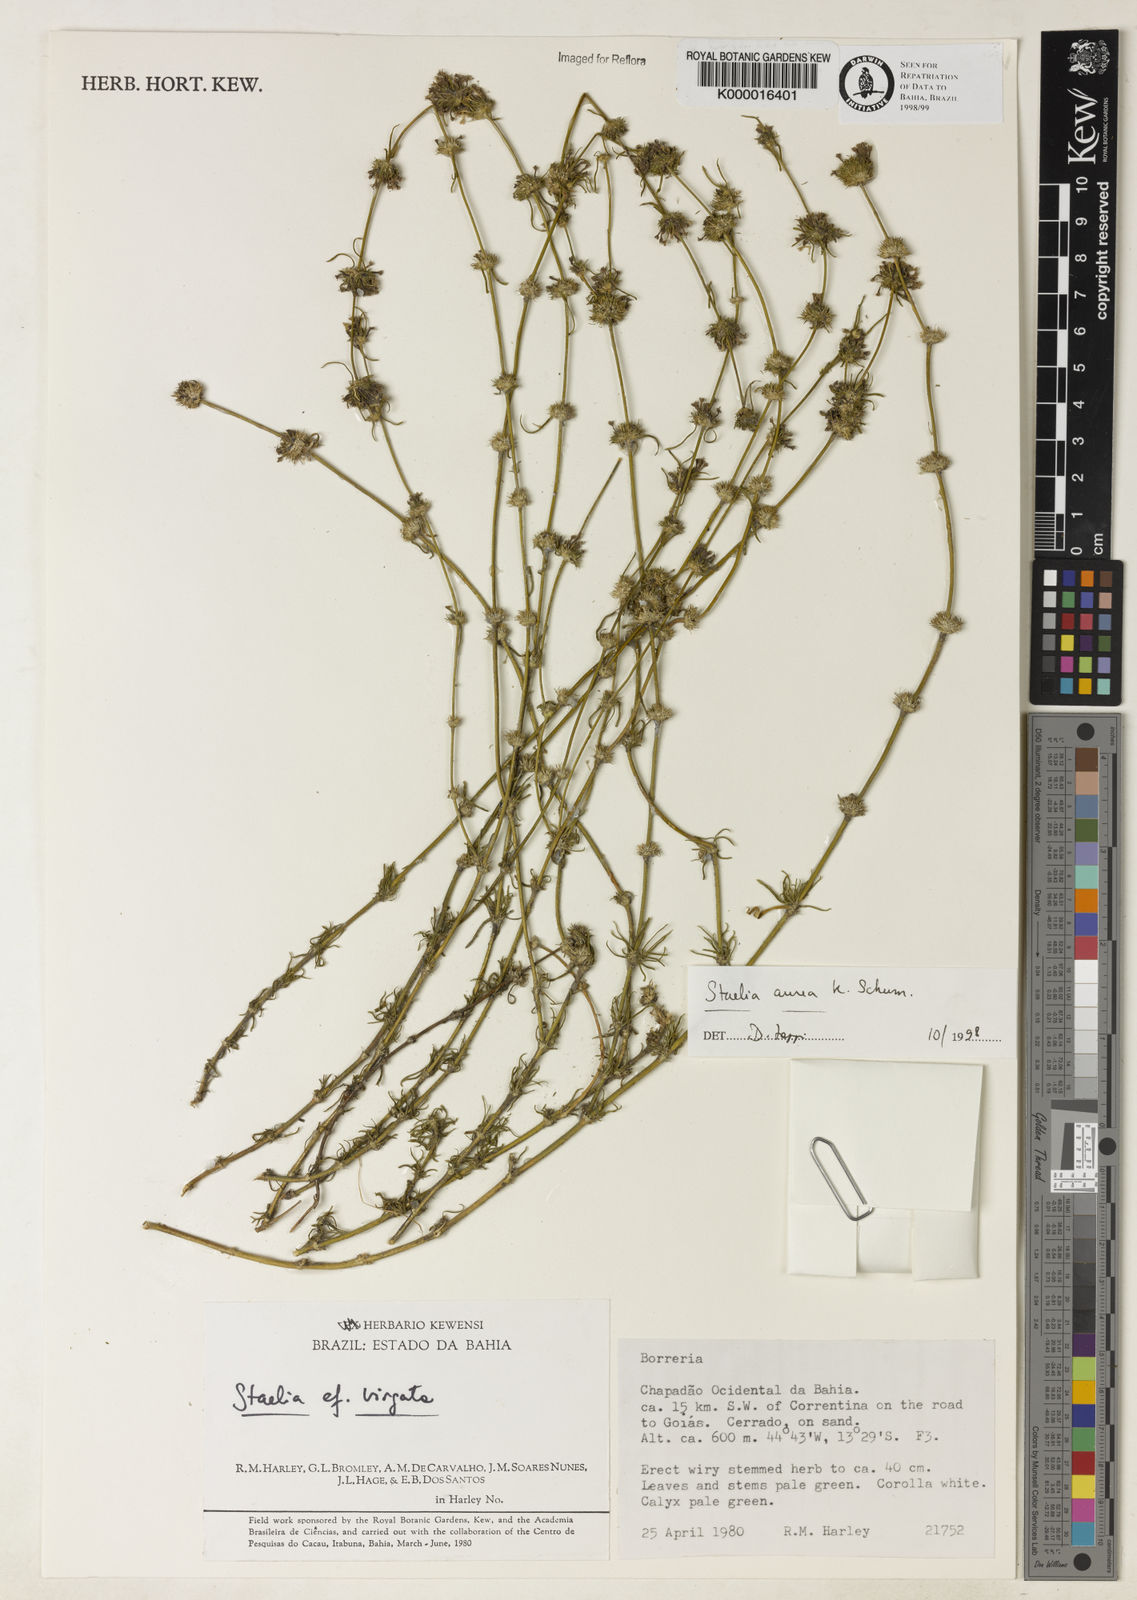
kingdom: Plantae
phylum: Tracheophyta
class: Magnoliopsida
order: Gentianales
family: Rubiaceae
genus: Staelia
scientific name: Staelia aurea
